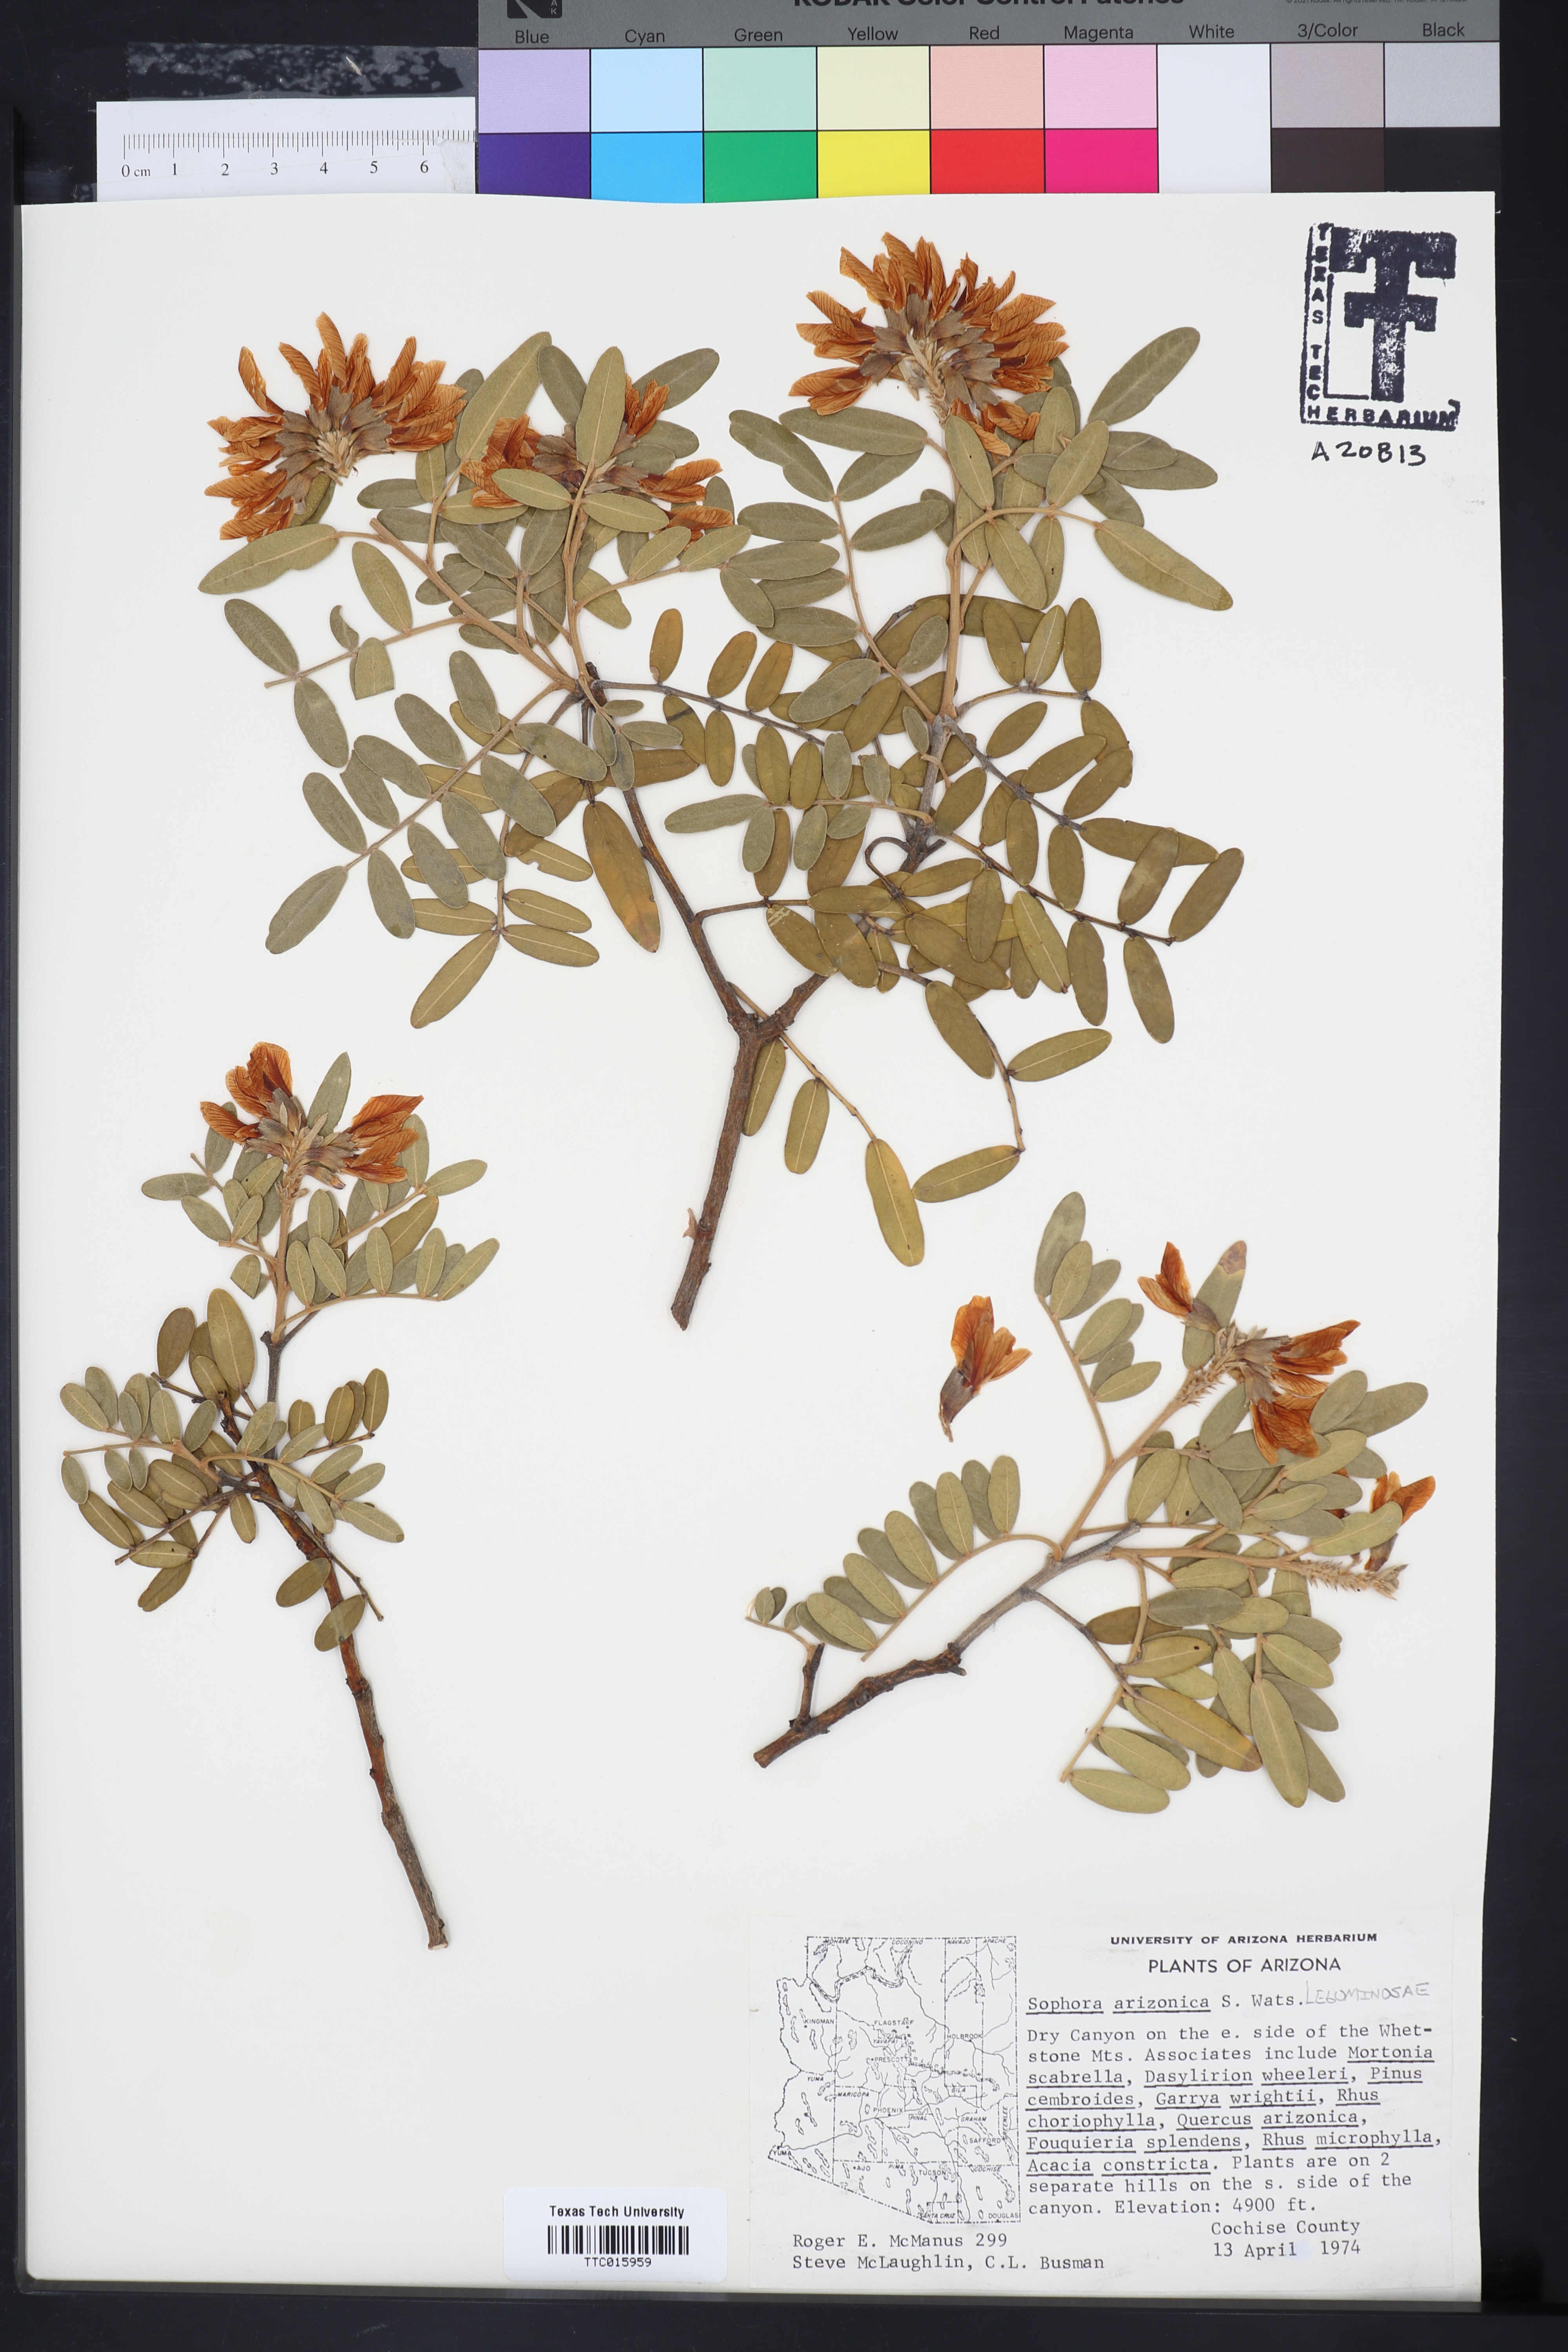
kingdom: Plantae
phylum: Tracheophyta
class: Magnoliopsida
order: Fabales
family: Fabaceae
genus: Dermatophyllum
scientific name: Dermatophyllum arizonicum
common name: Arizona necklace
